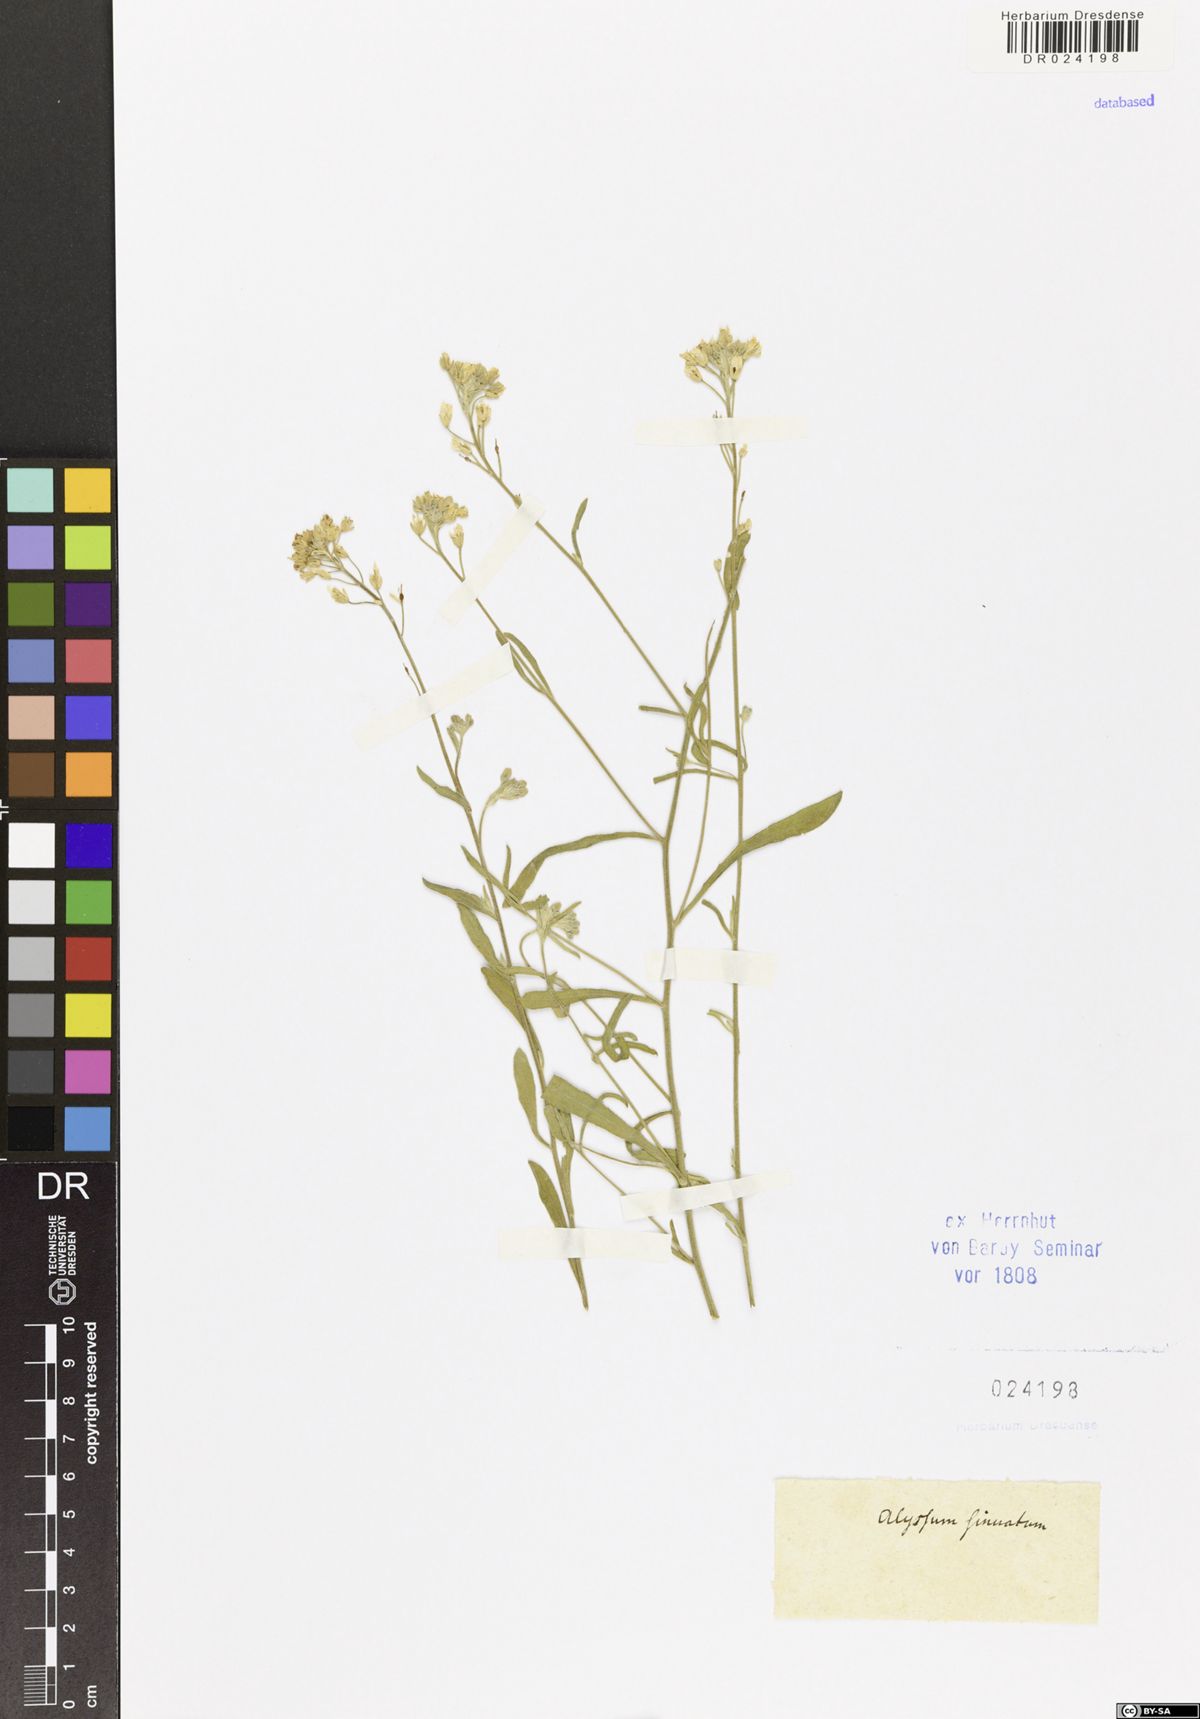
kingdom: Plantae
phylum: Tracheophyta
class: Magnoliopsida
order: Brassicales
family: Brassicaceae
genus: Aurinia
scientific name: Aurinia sinuata
